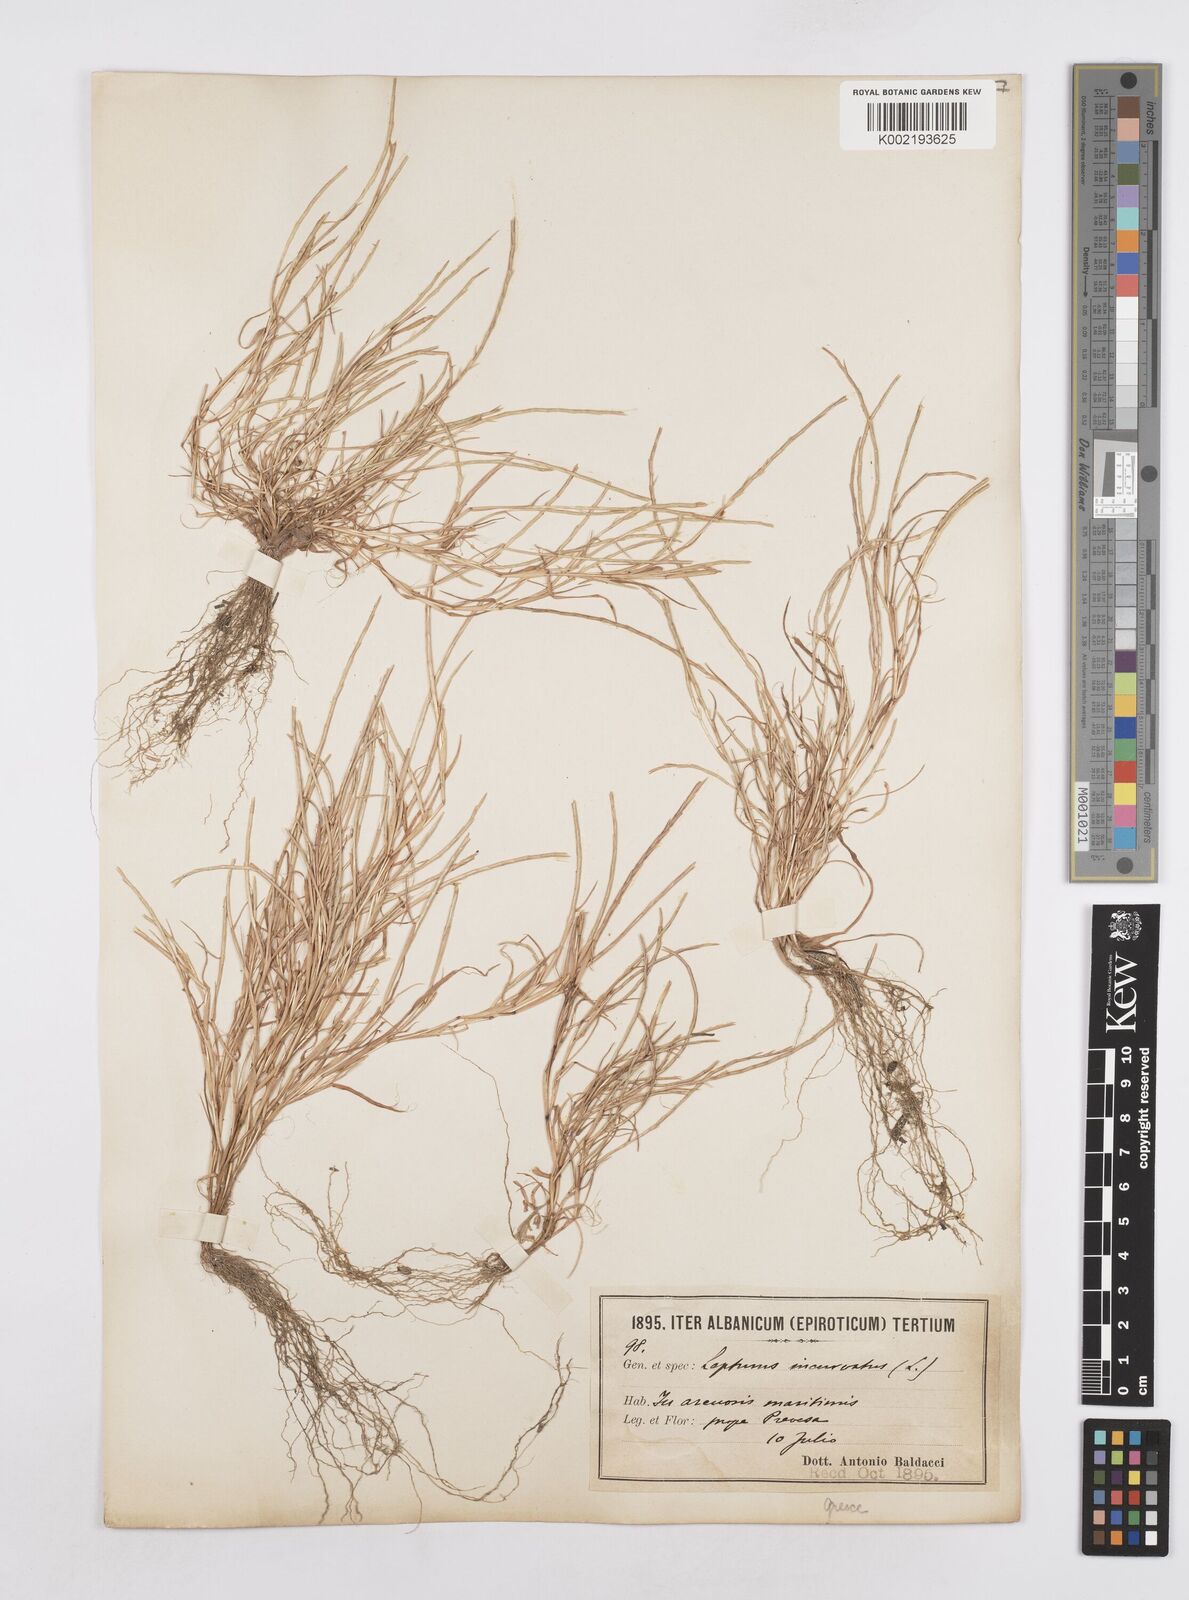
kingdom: Plantae
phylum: Tracheophyta
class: Liliopsida
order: Poales
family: Poaceae
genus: Parapholis
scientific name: Parapholis filiformis
